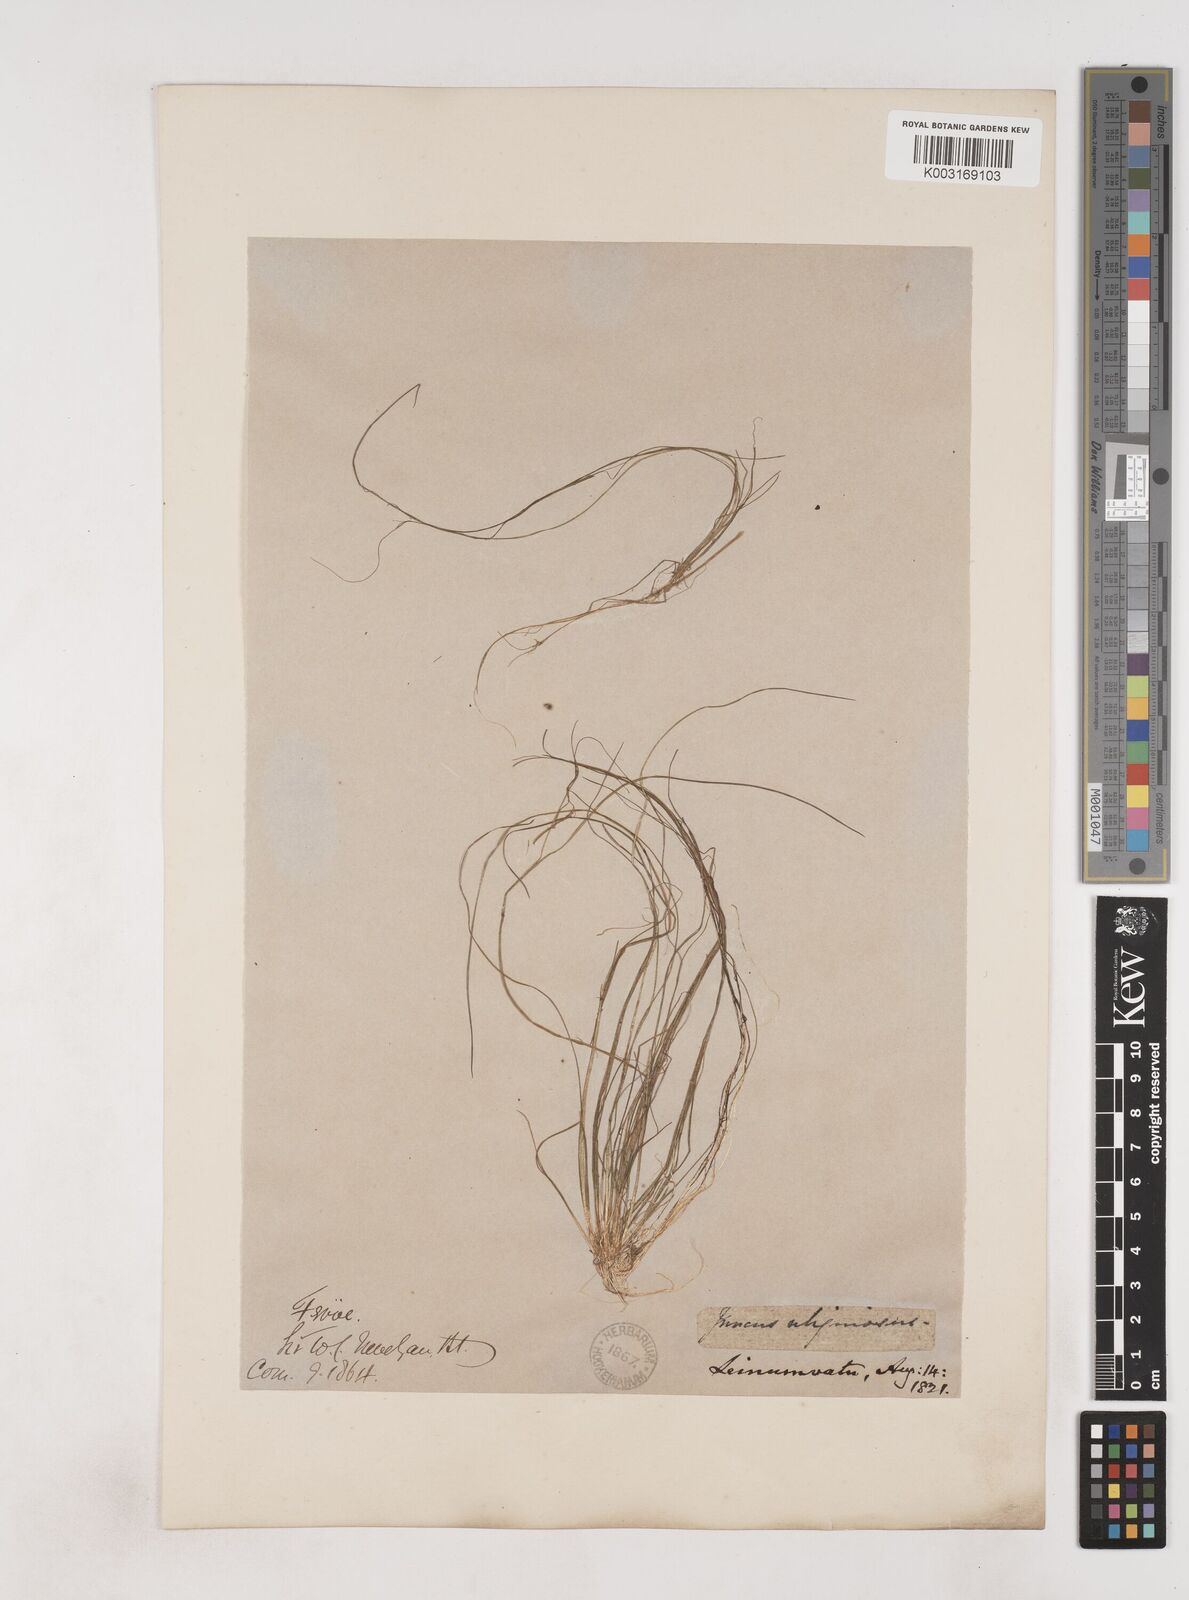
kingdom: Plantae
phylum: Tracheophyta
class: Liliopsida
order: Poales
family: Juncaceae
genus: Juncus
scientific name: Juncus bulbosus
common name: Bulbous rush
